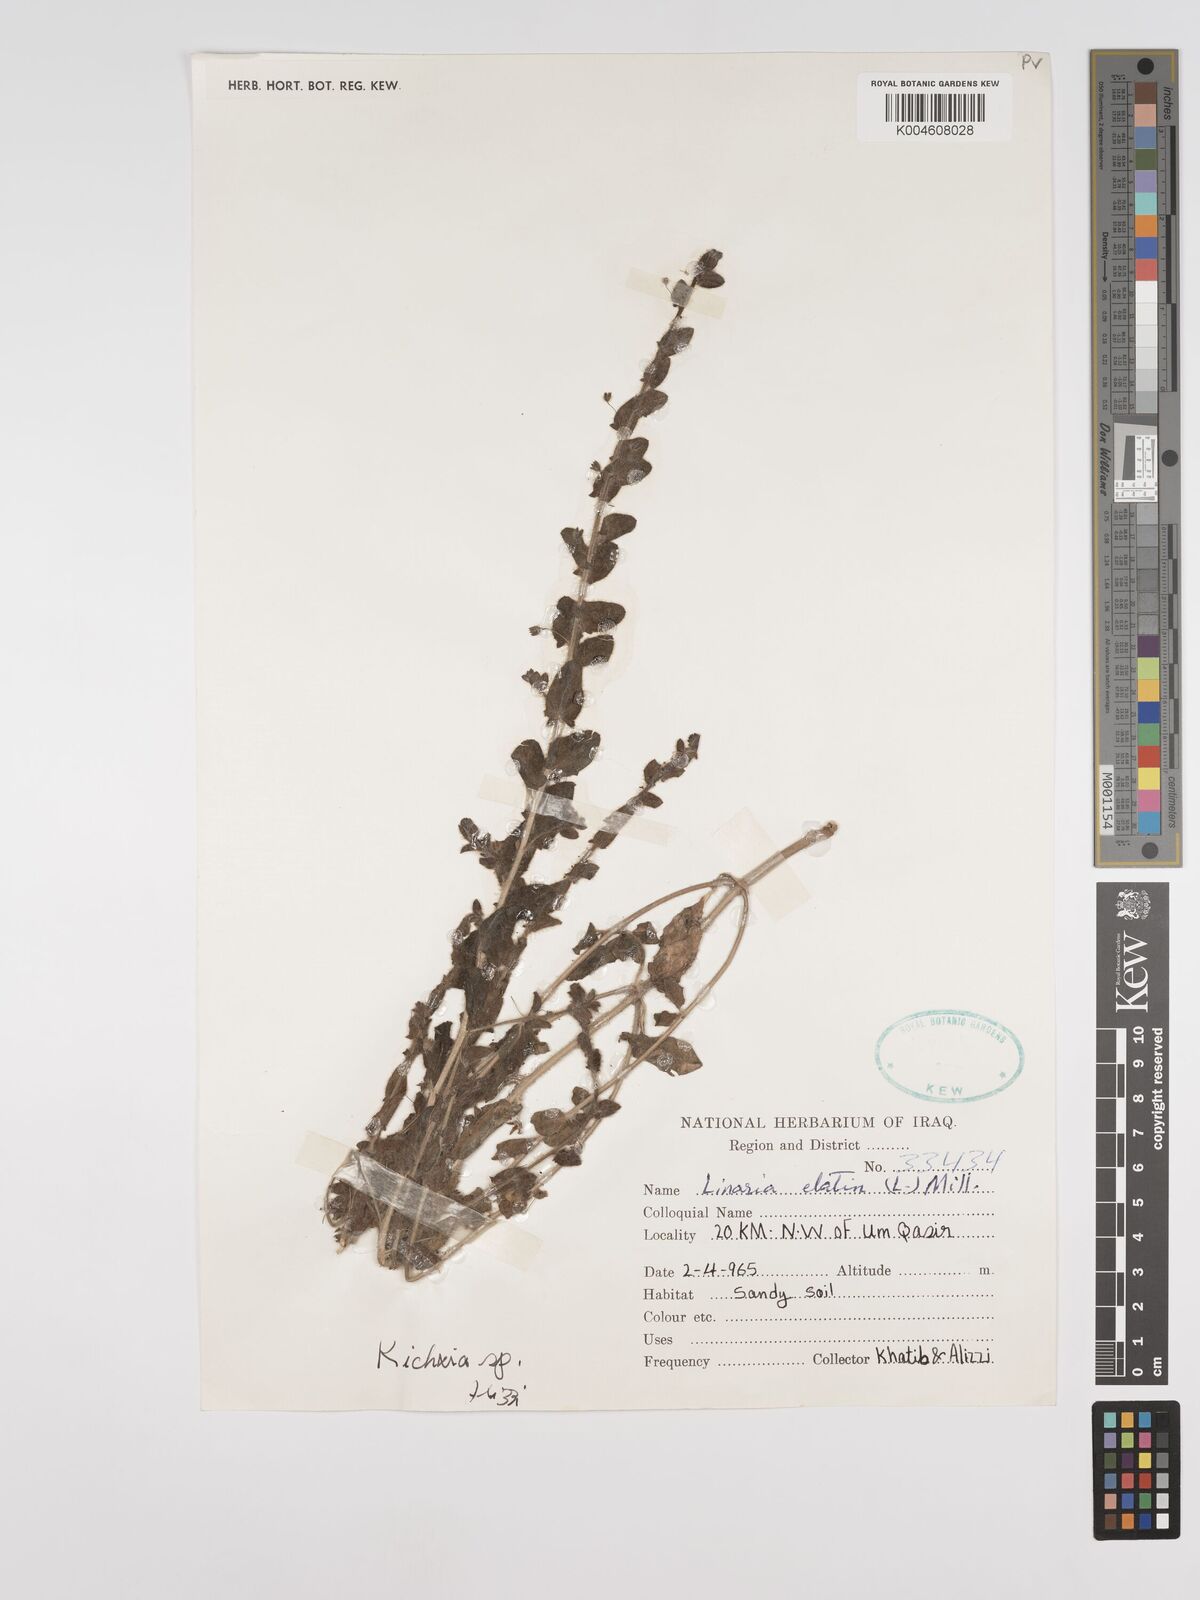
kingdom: Plantae
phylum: Tracheophyta
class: Magnoliopsida
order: Lamiales
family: Plantaginaceae
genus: Kickxia
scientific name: Kickxia elatine
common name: Sharp-leaved fluellen
